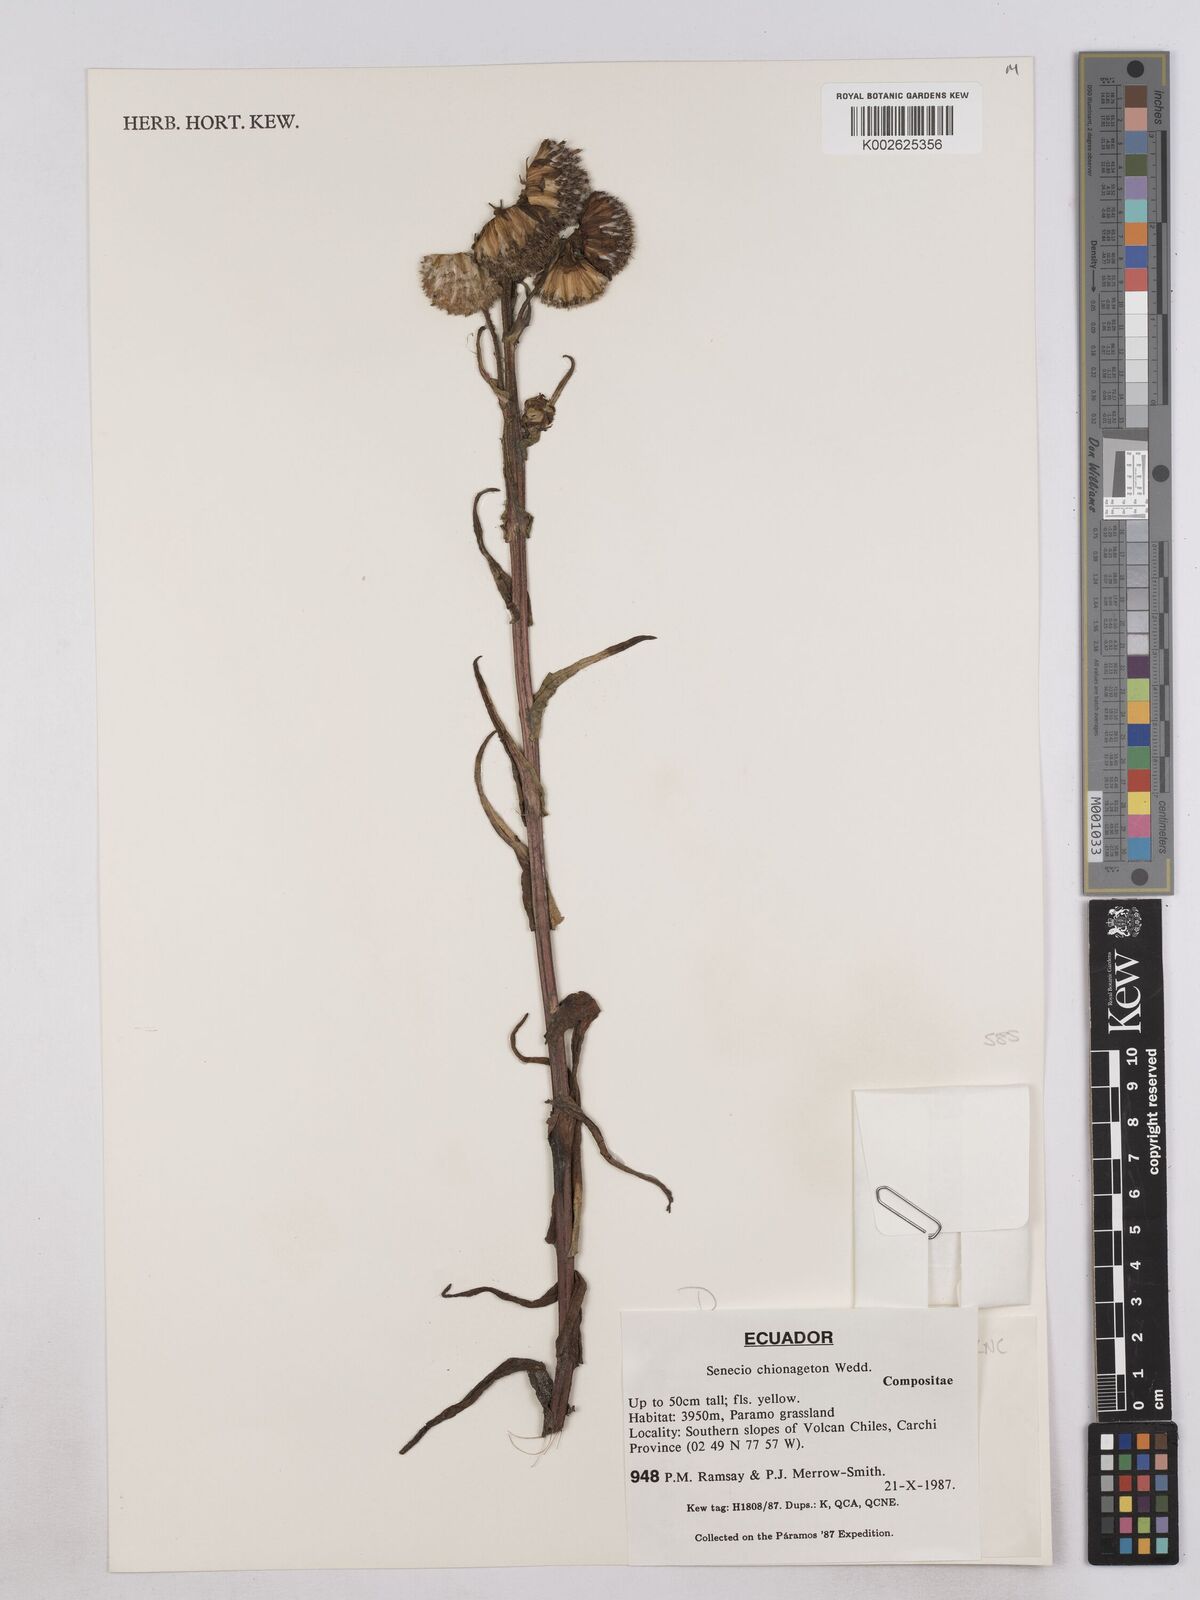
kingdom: Plantae
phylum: Tracheophyta
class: Magnoliopsida
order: Asterales
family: Asteraceae
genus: Senecio
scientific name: Senecio chionogeton
